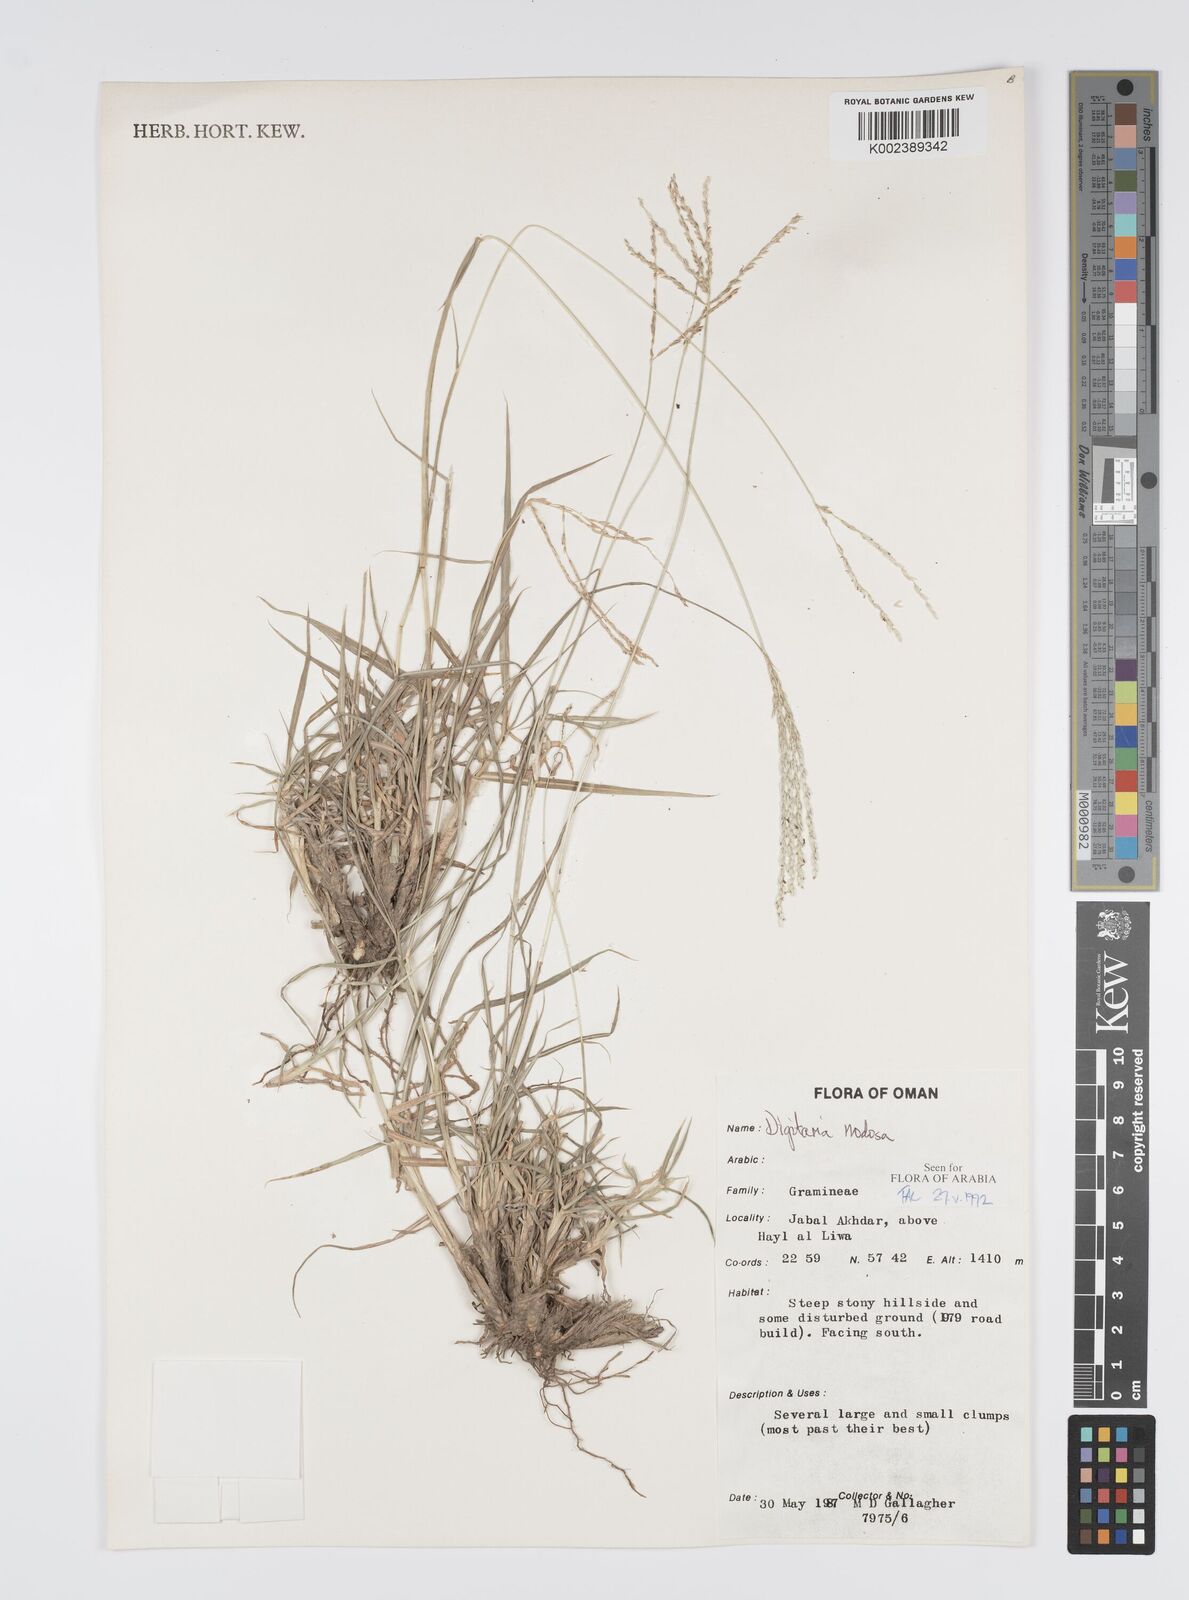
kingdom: Plantae
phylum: Tracheophyta
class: Liliopsida
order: Poales
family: Poaceae
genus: Digitaria
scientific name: Digitaria nodosa
